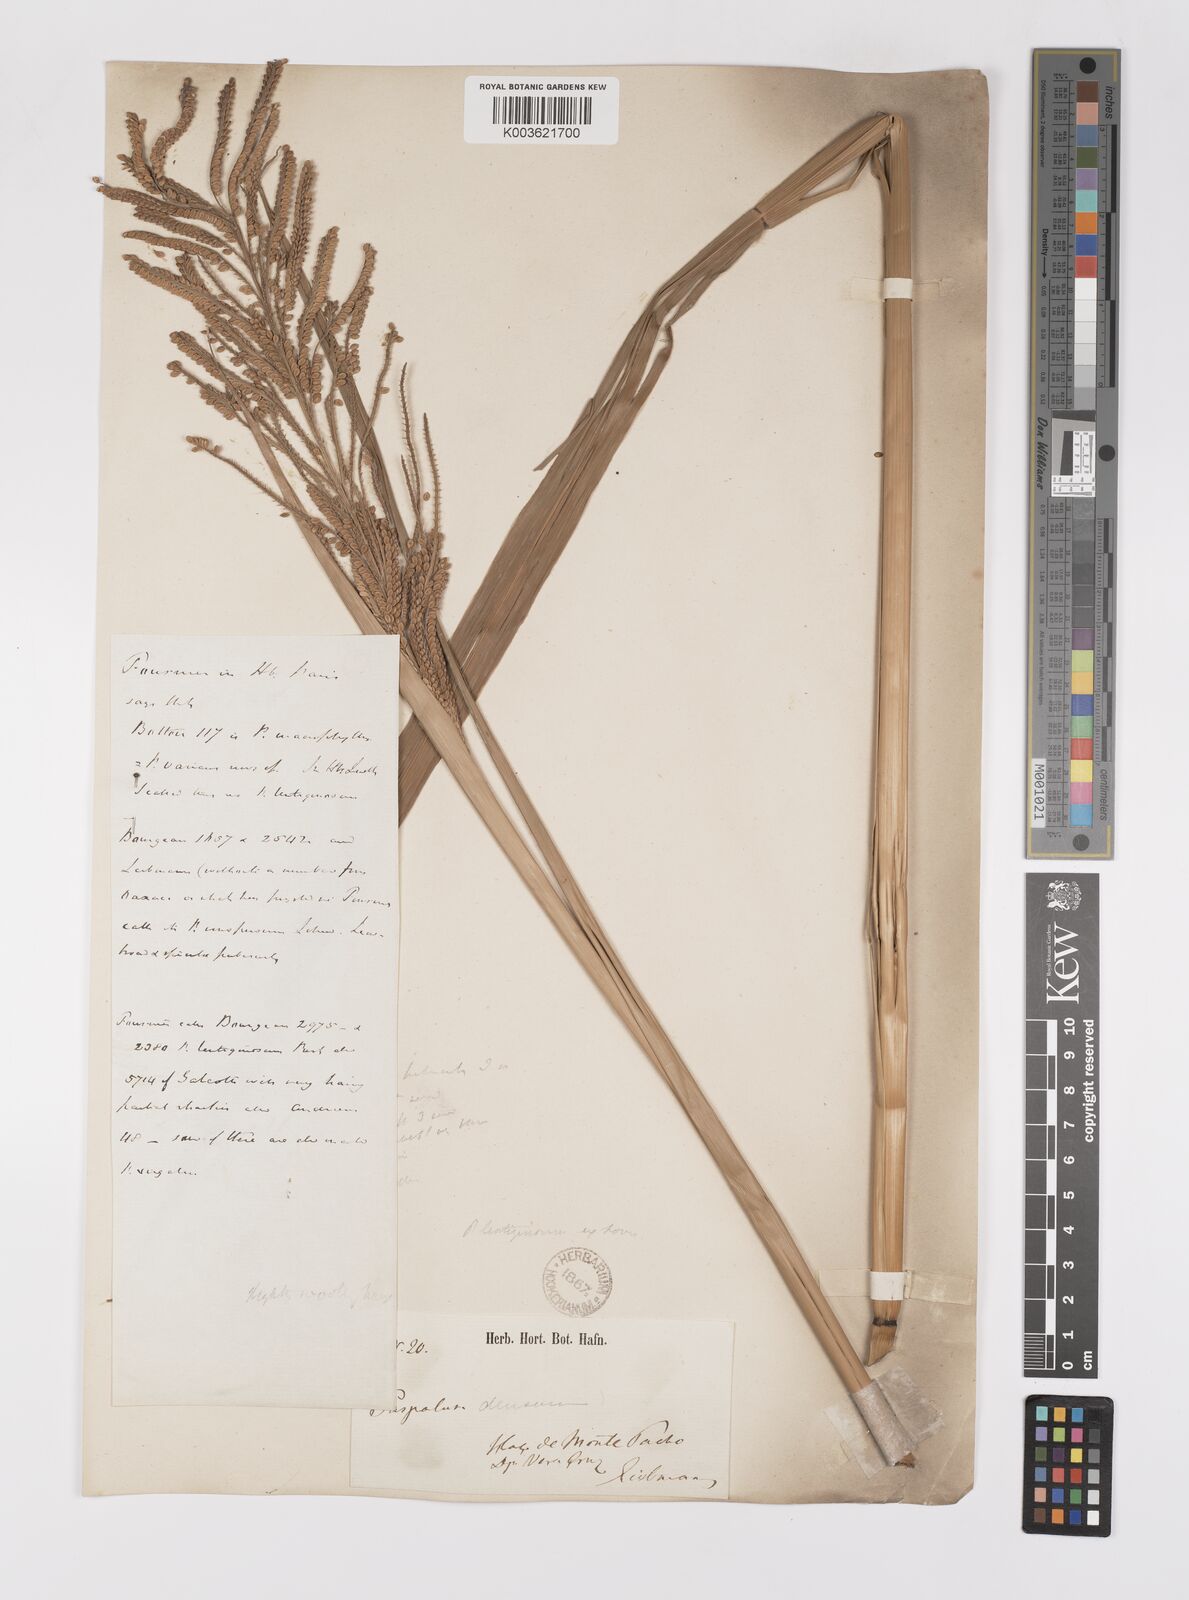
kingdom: Plantae
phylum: Tracheophyta
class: Liliopsida
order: Poales
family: Poaceae
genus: Paspalum
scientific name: Paspalum plenum
